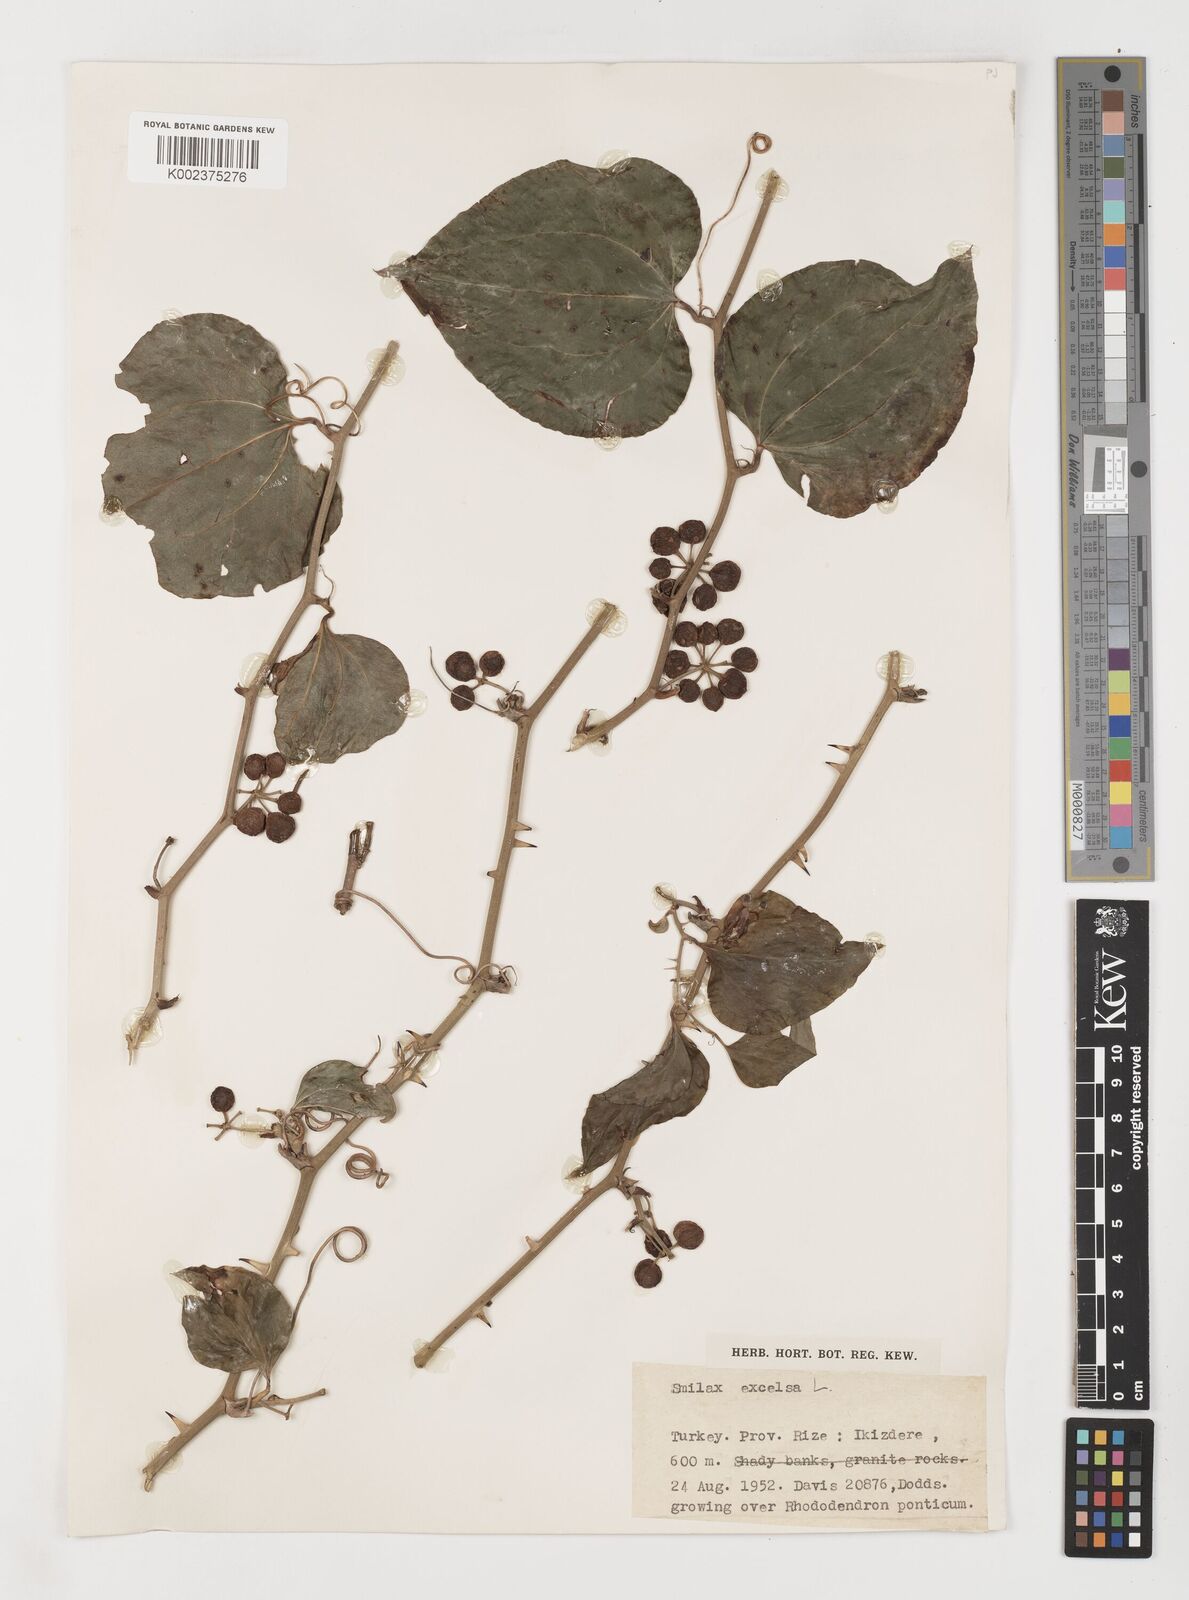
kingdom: Plantae
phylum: Tracheophyta
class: Liliopsida
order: Liliales
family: Smilacaceae
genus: Smilax
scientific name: Smilax excelsa
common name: Larger smilax
